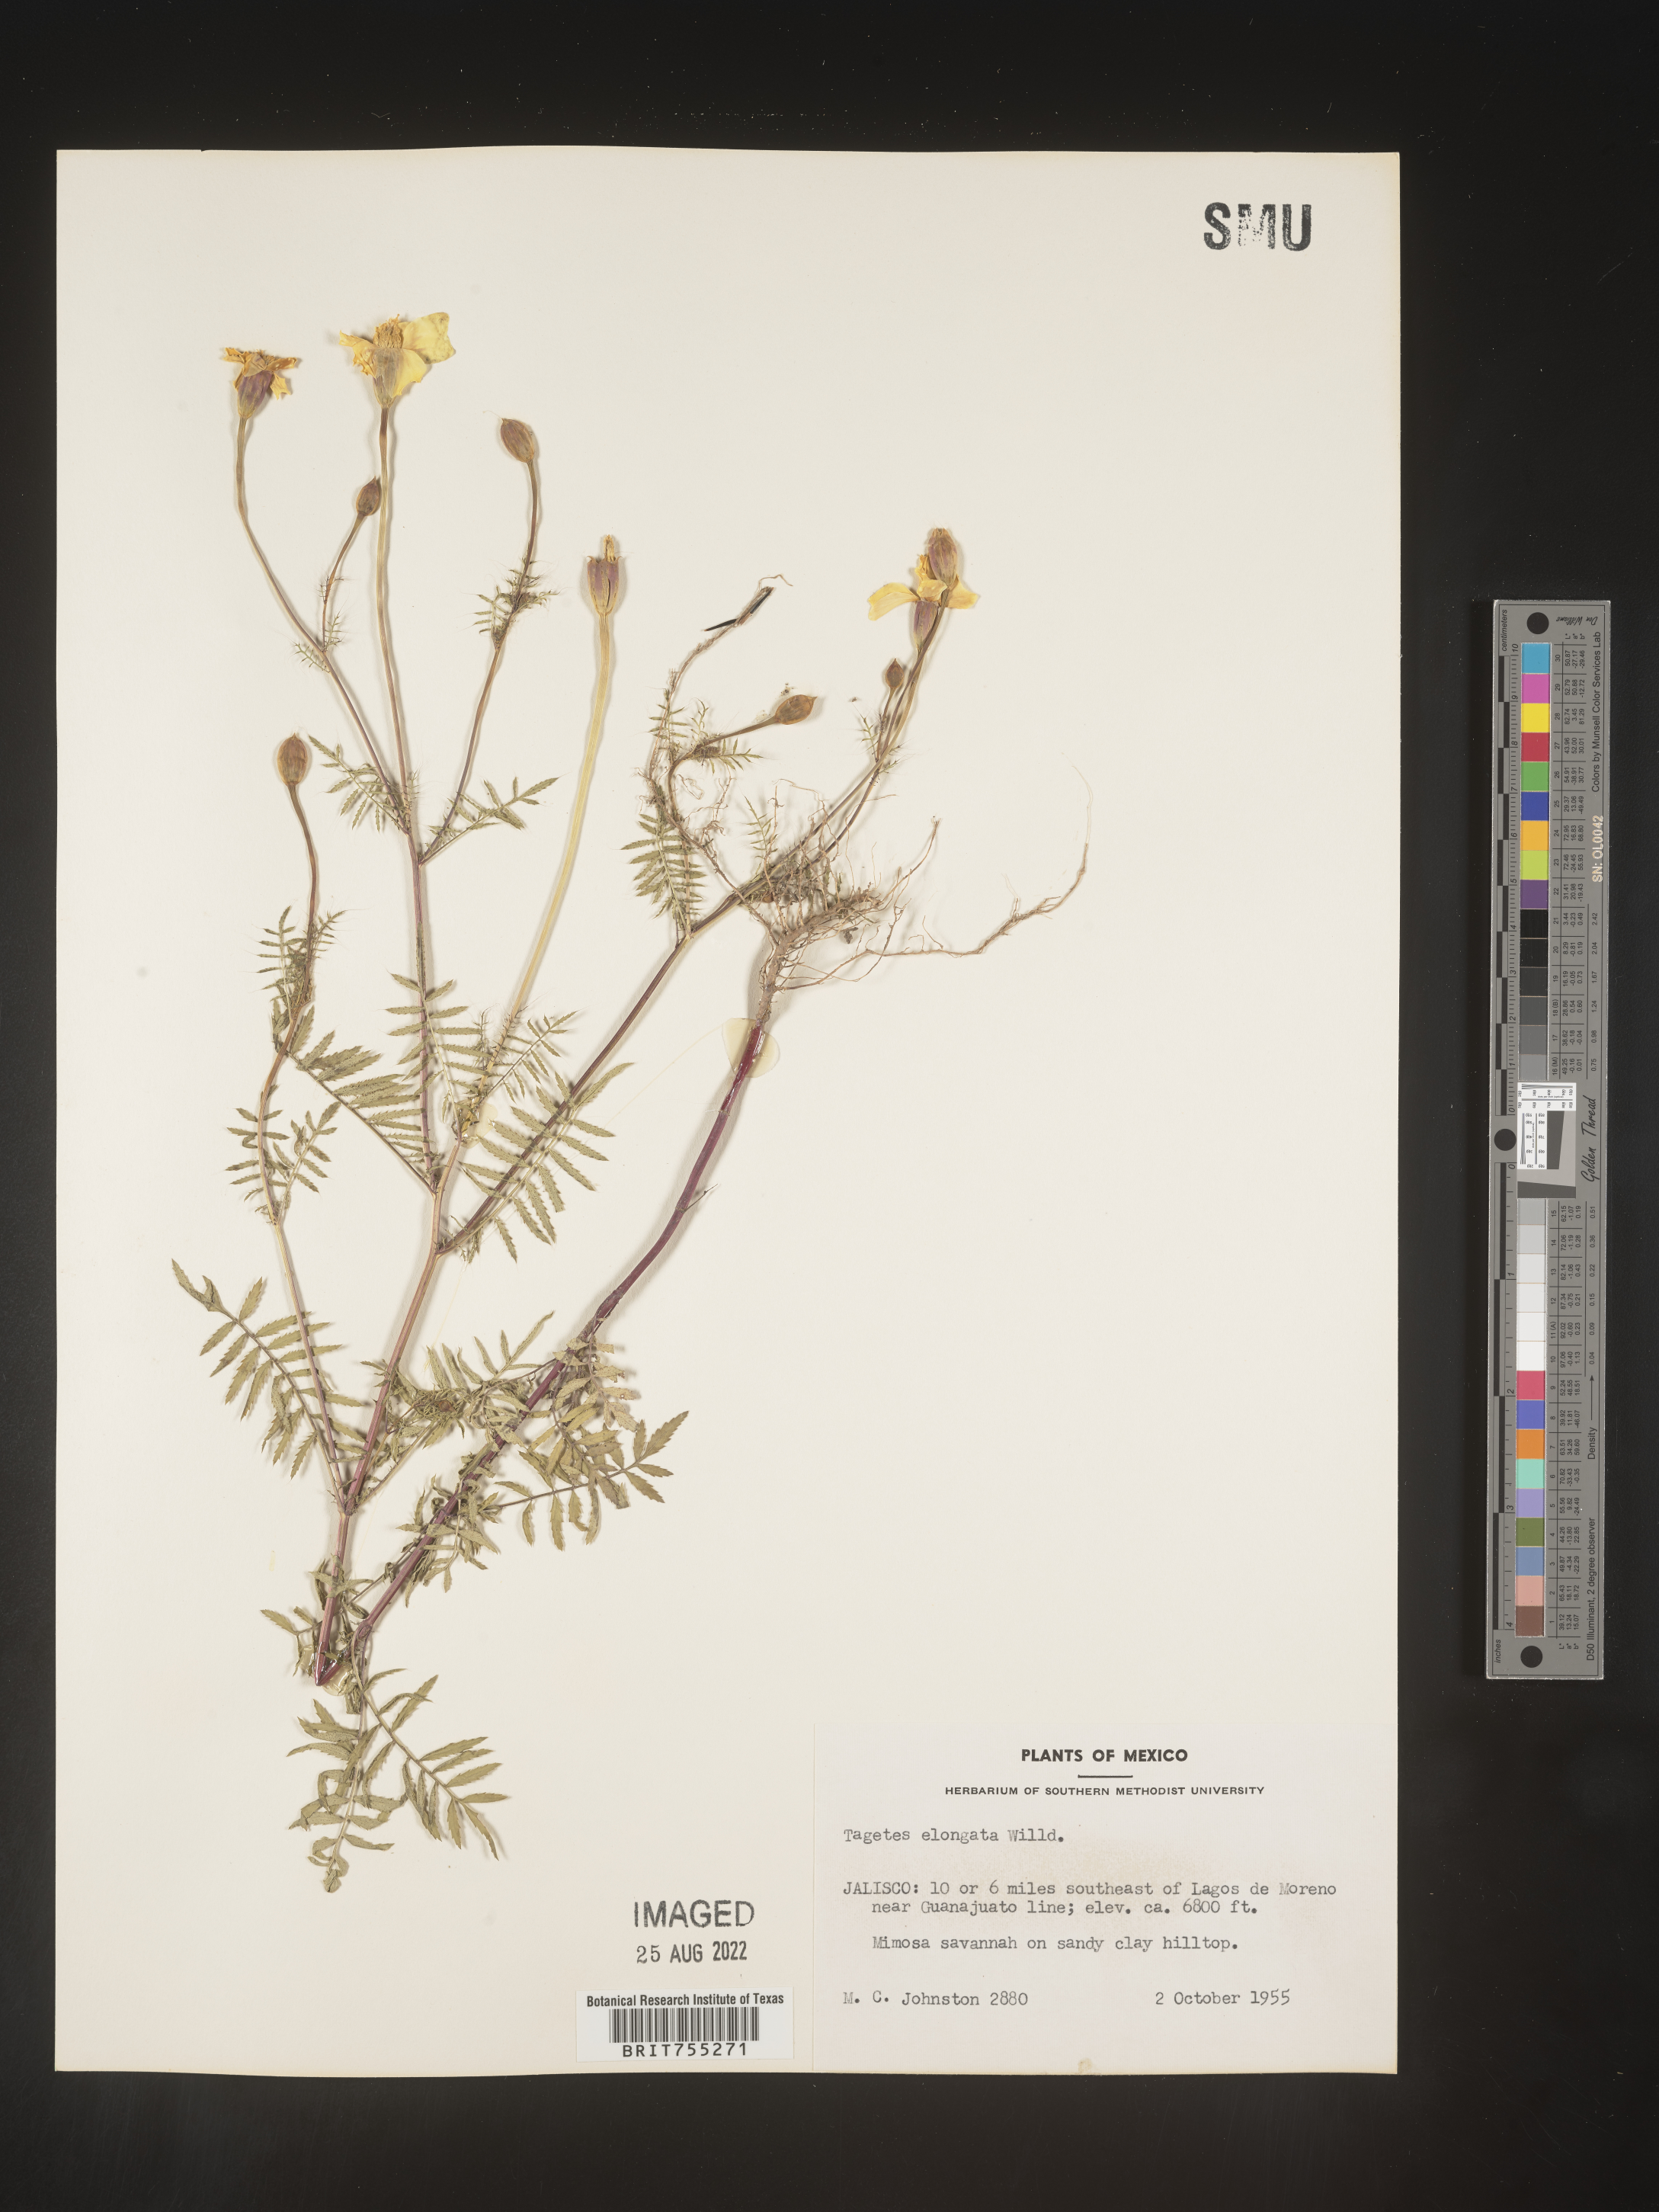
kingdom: Plantae
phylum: Tracheophyta
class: Magnoliopsida
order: Asterales
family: Asteraceae
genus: Tagetes
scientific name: Tagetes
